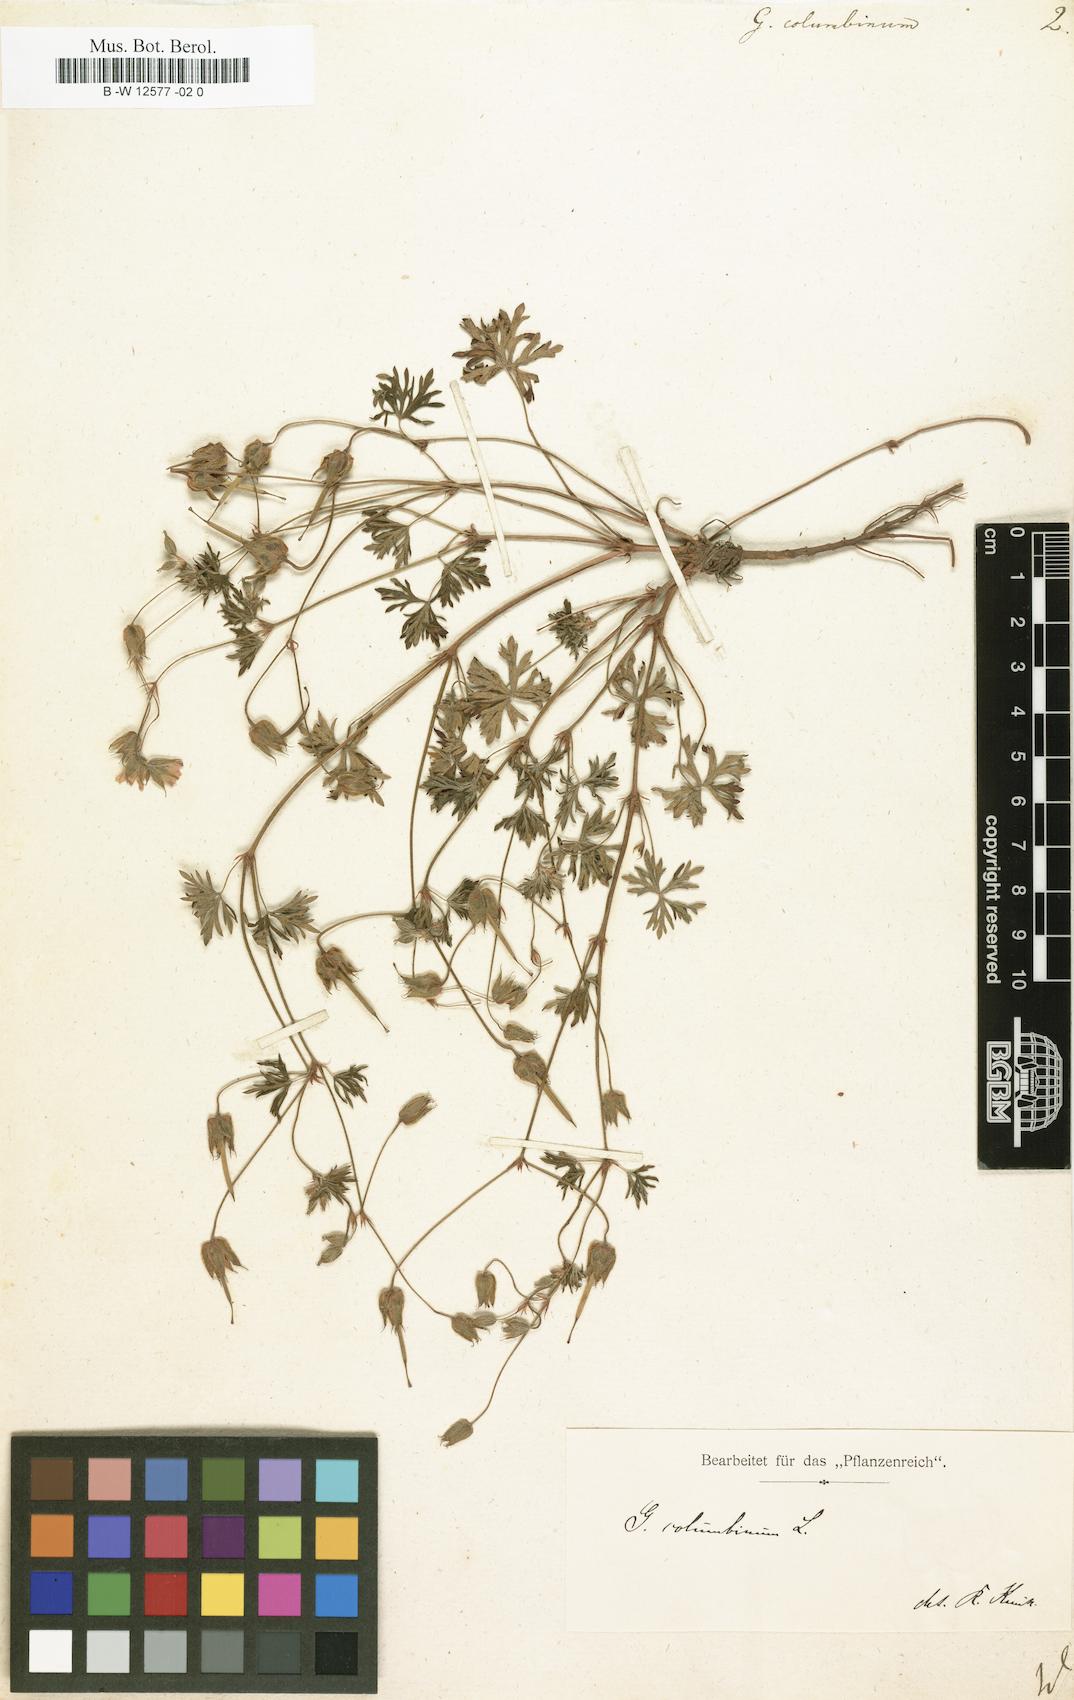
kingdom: Plantae
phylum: Tracheophyta
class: Magnoliopsida
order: Geraniales
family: Geraniaceae
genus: Geranium
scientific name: Geranium columbinum
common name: Long-stalked crane's-bill
